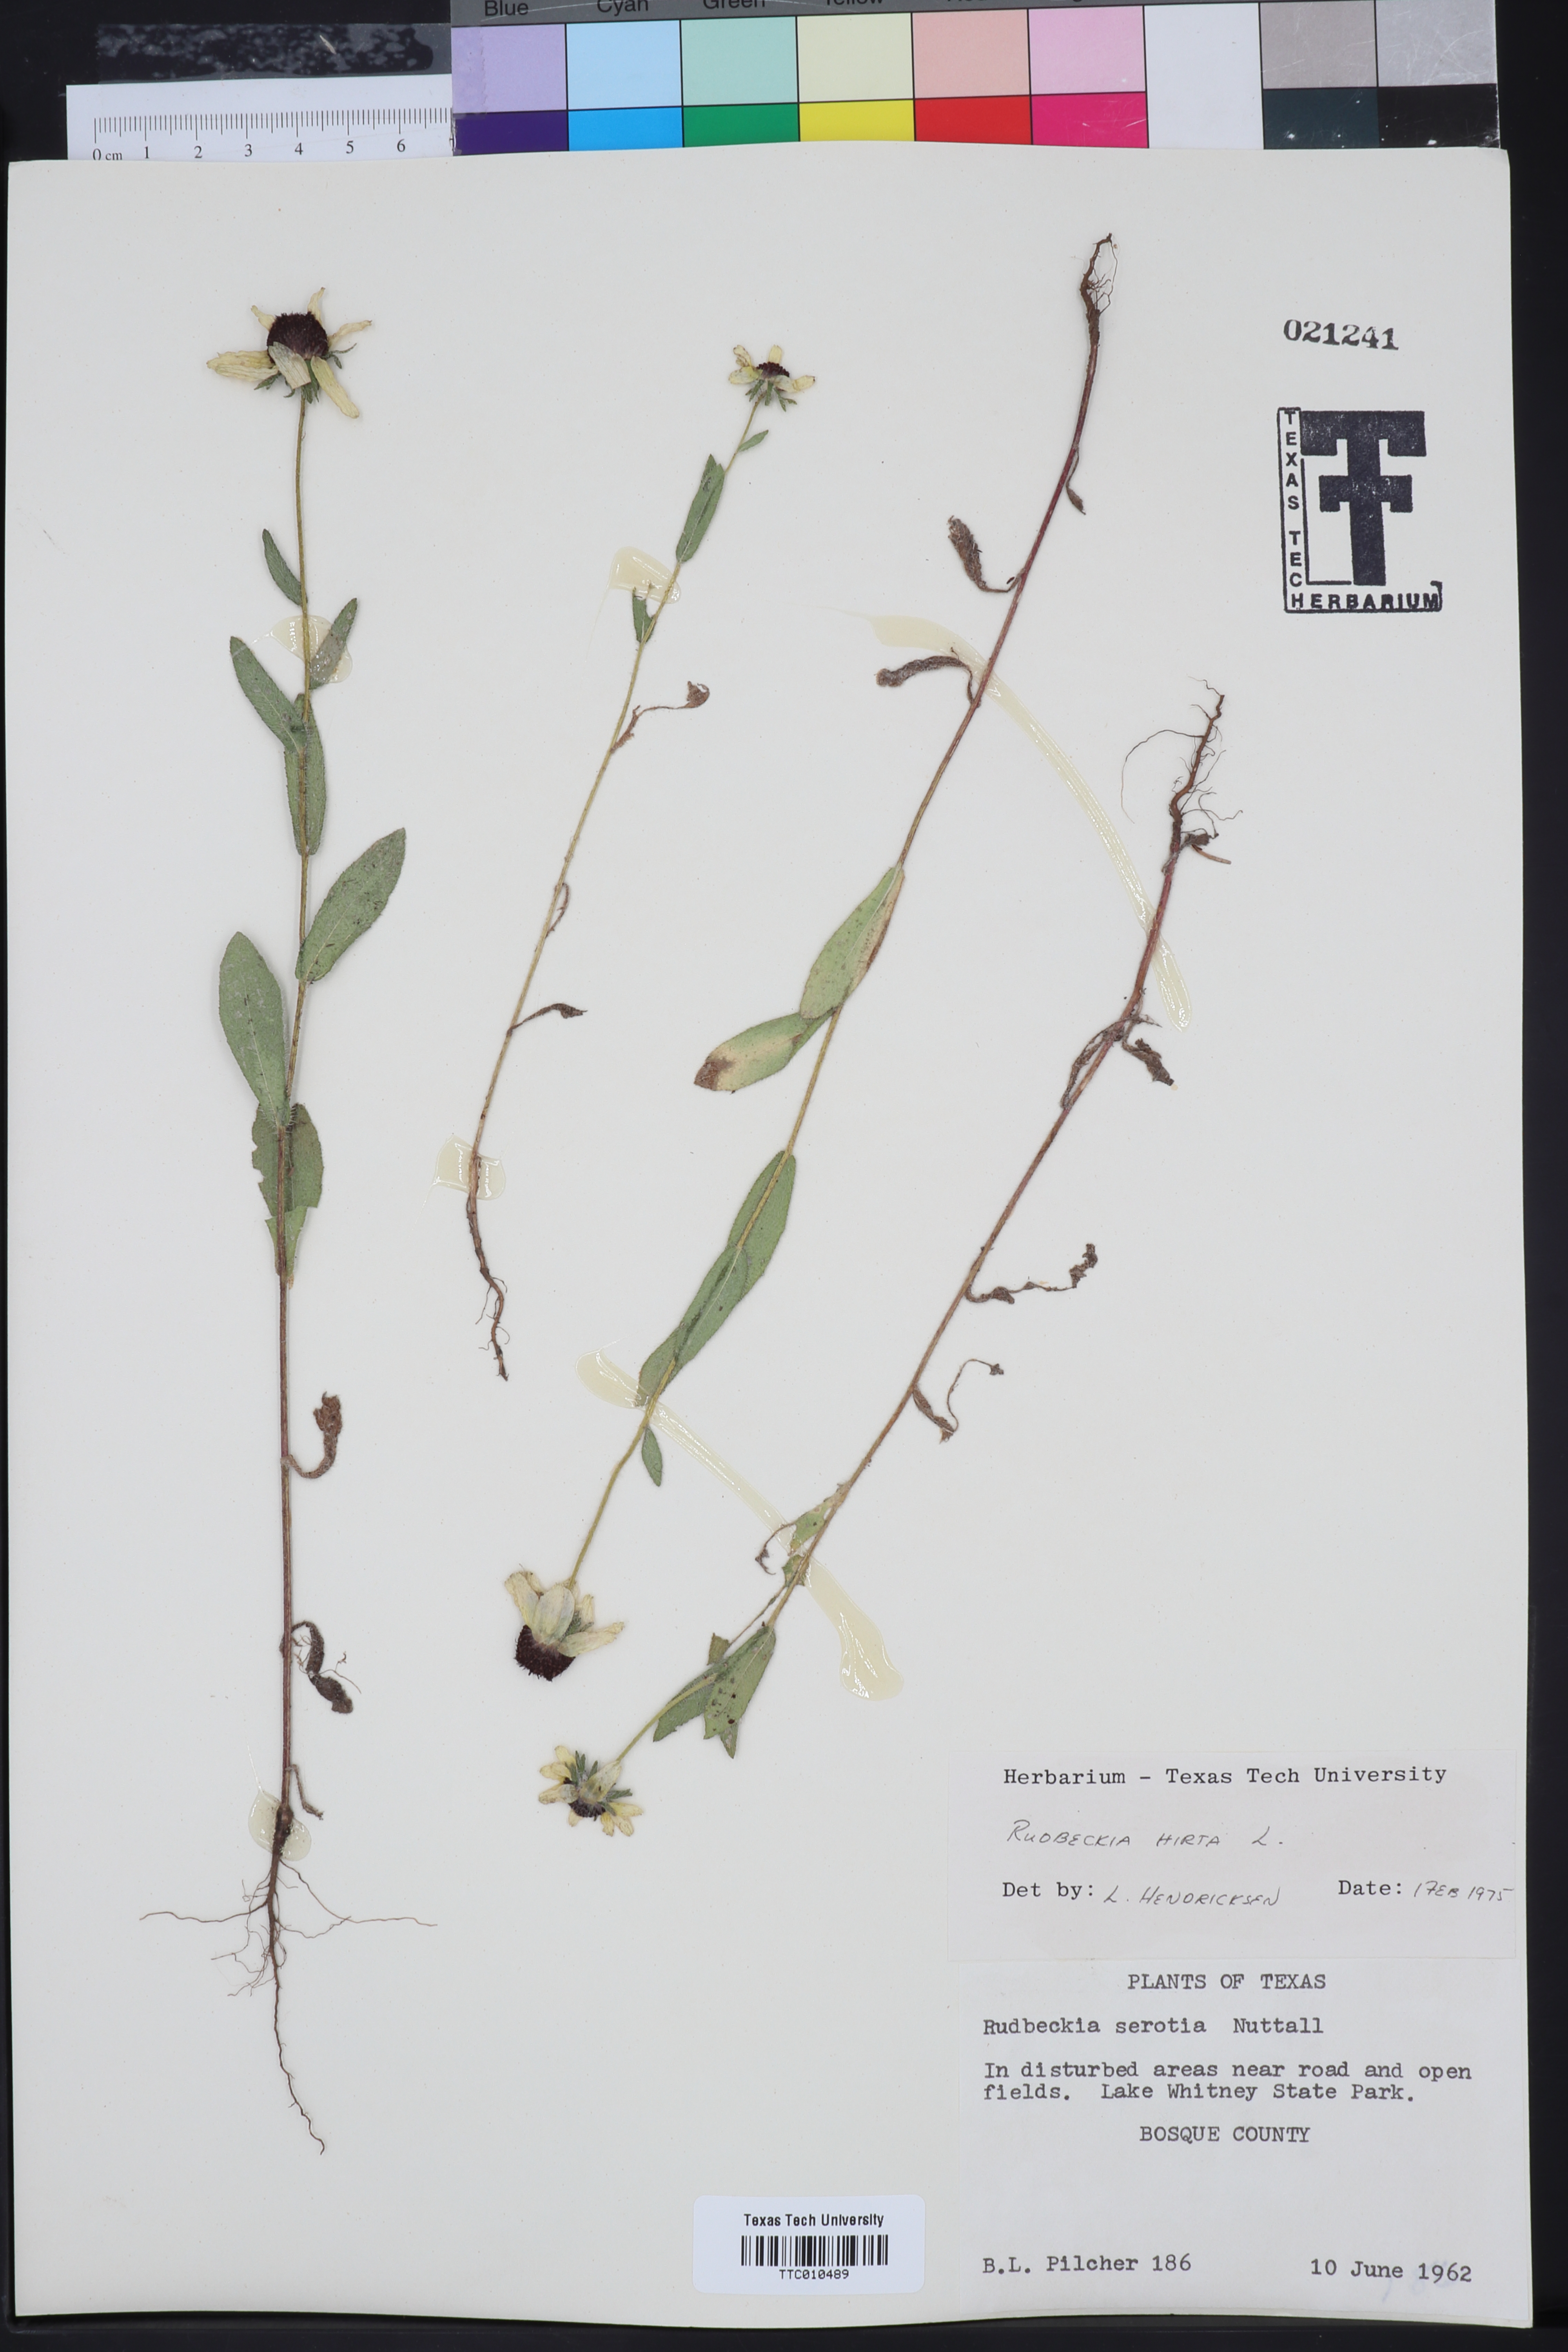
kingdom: Plantae
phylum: Tracheophyta
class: Magnoliopsida
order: Asterales
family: Asteraceae
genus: Rudbeckia
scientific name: Rudbeckia hirta
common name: Black-eyed-susan
